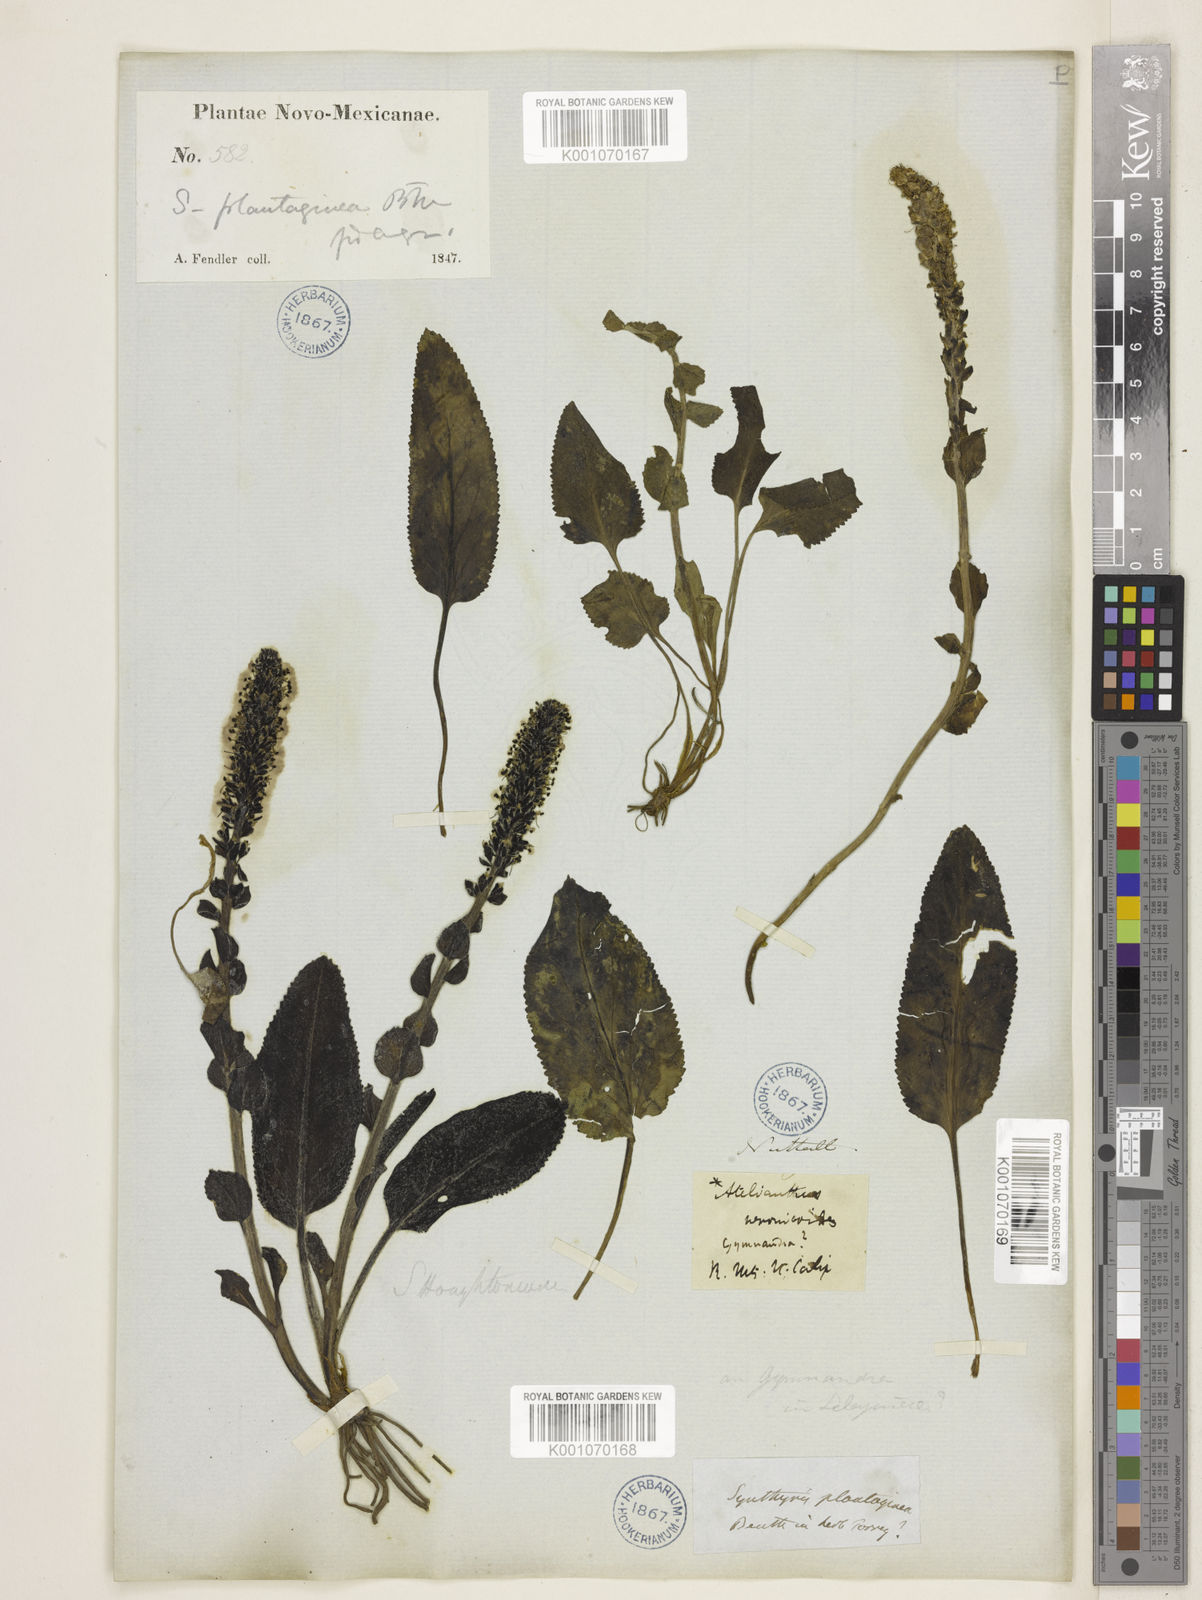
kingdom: Plantae
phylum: Tracheophyta
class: Magnoliopsida
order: Lamiales
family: Plantaginaceae
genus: Synthyris
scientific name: Synthyris plantaginea
